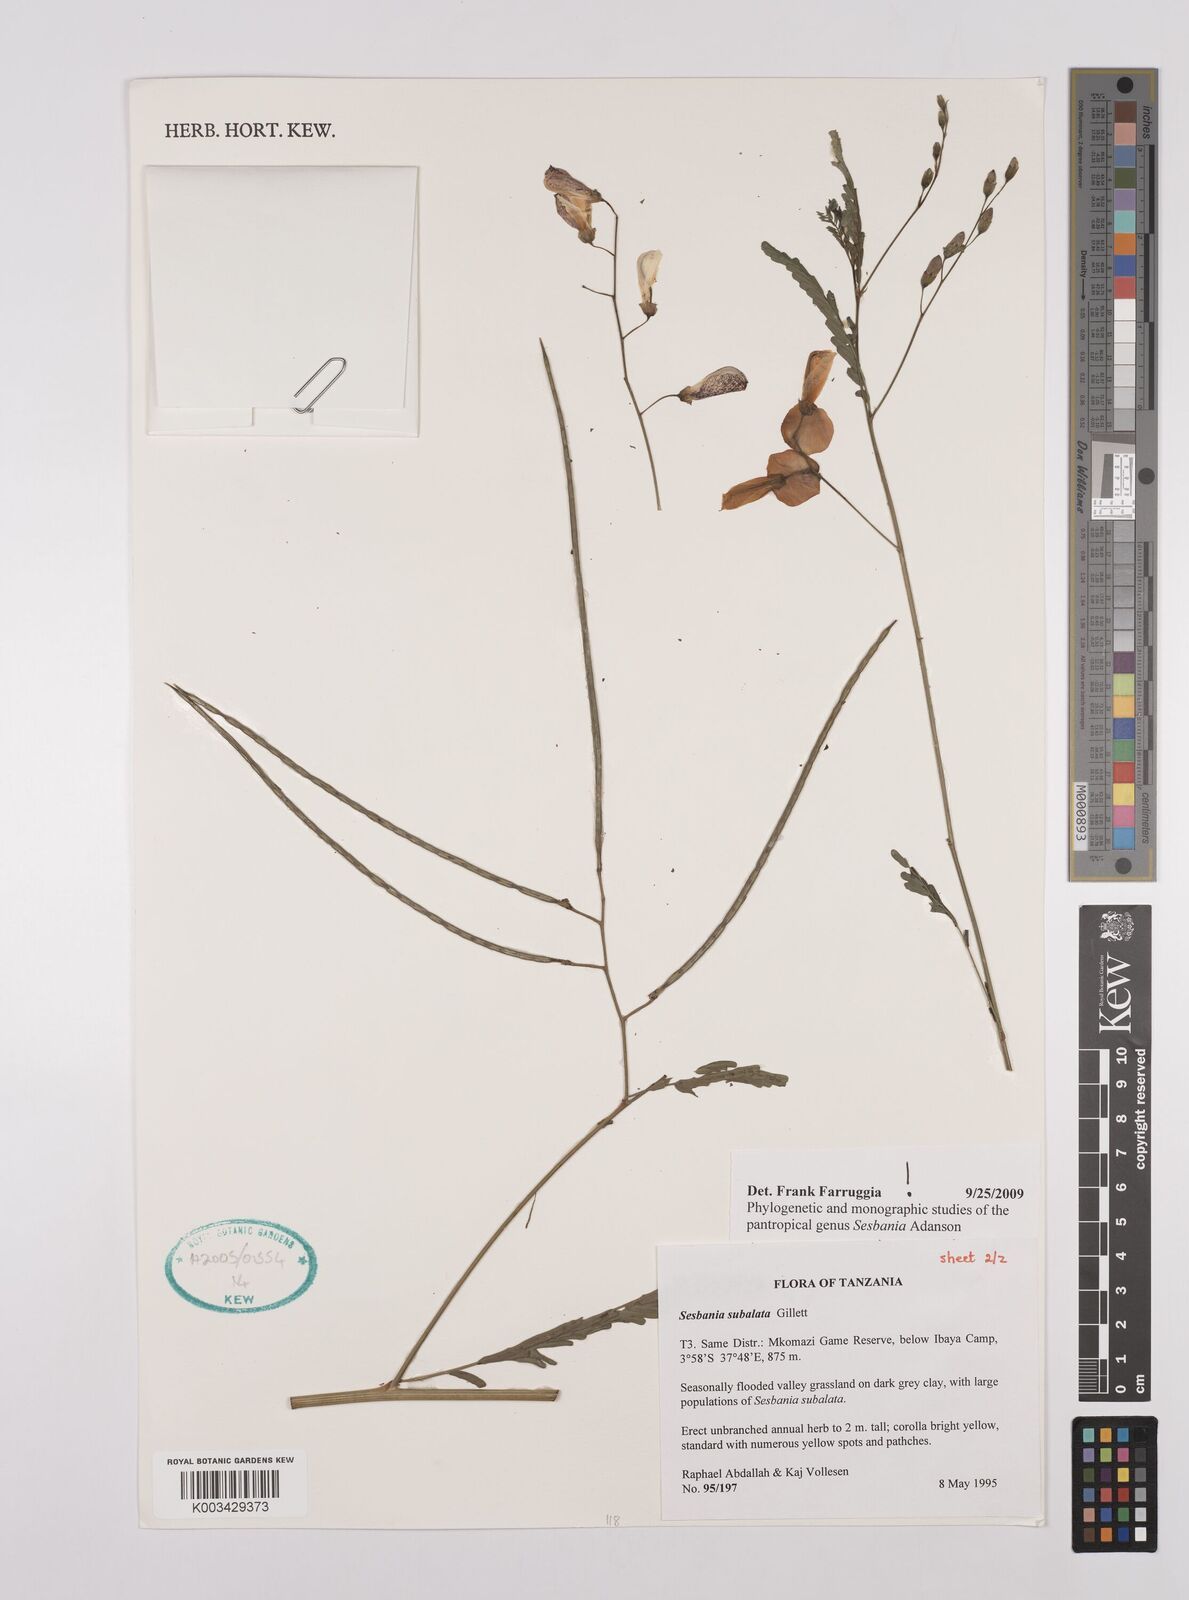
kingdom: Plantae
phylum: Tracheophyta
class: Magnoliopsida
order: Fabales
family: Fabaceae
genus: Sesbania
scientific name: Sesbania subalata
